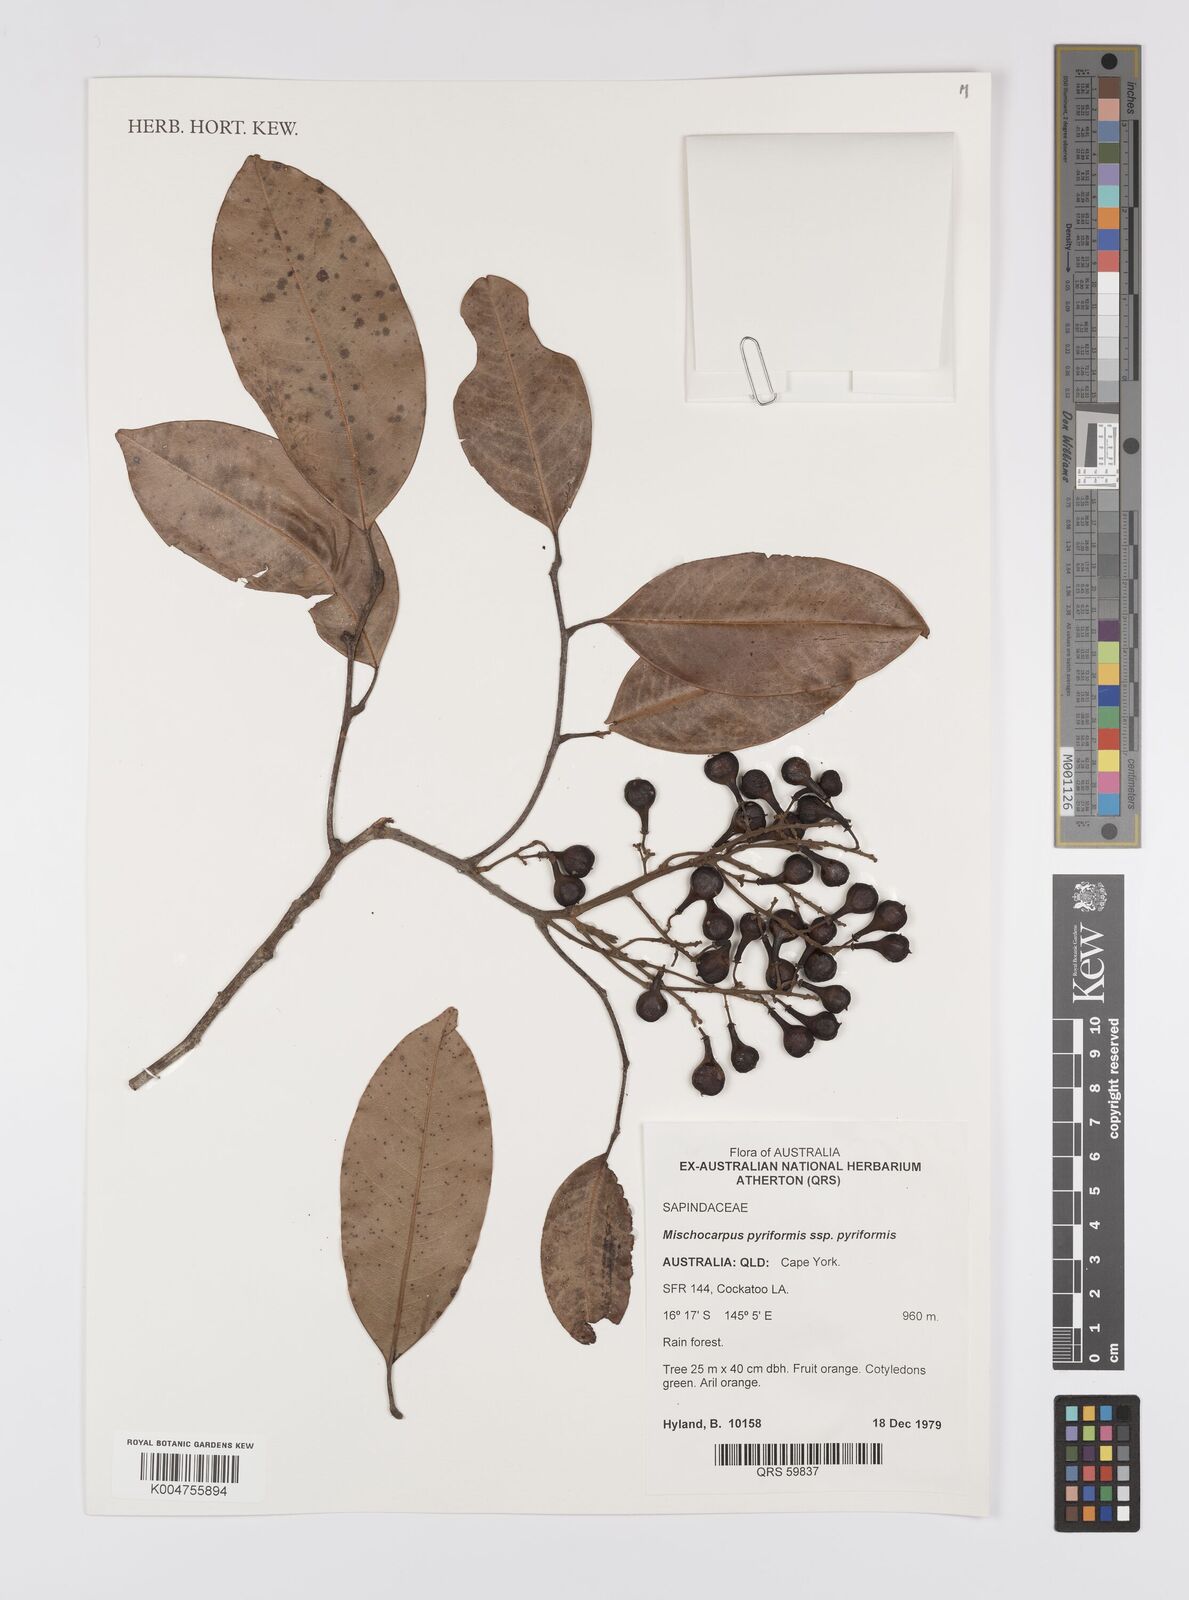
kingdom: Plantae
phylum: Tracheophyta
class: Magnoliopsida
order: Sapindales
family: Sapindaceae
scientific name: Sapindaceae
